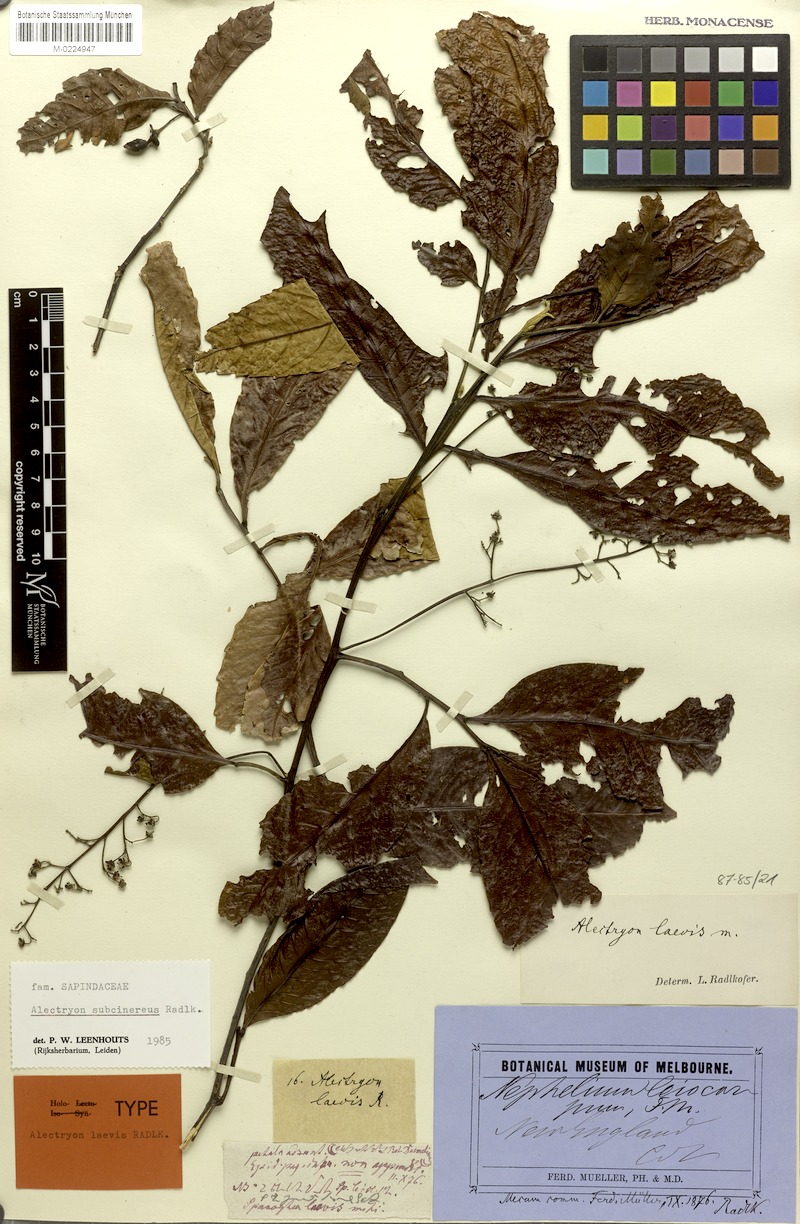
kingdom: Plantae
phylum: Tracheophyta
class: Magnoliopsida
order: Sapindales
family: Sapindaceae
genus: Alectryon
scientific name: Alectryon subcinereus
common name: Wild quince
